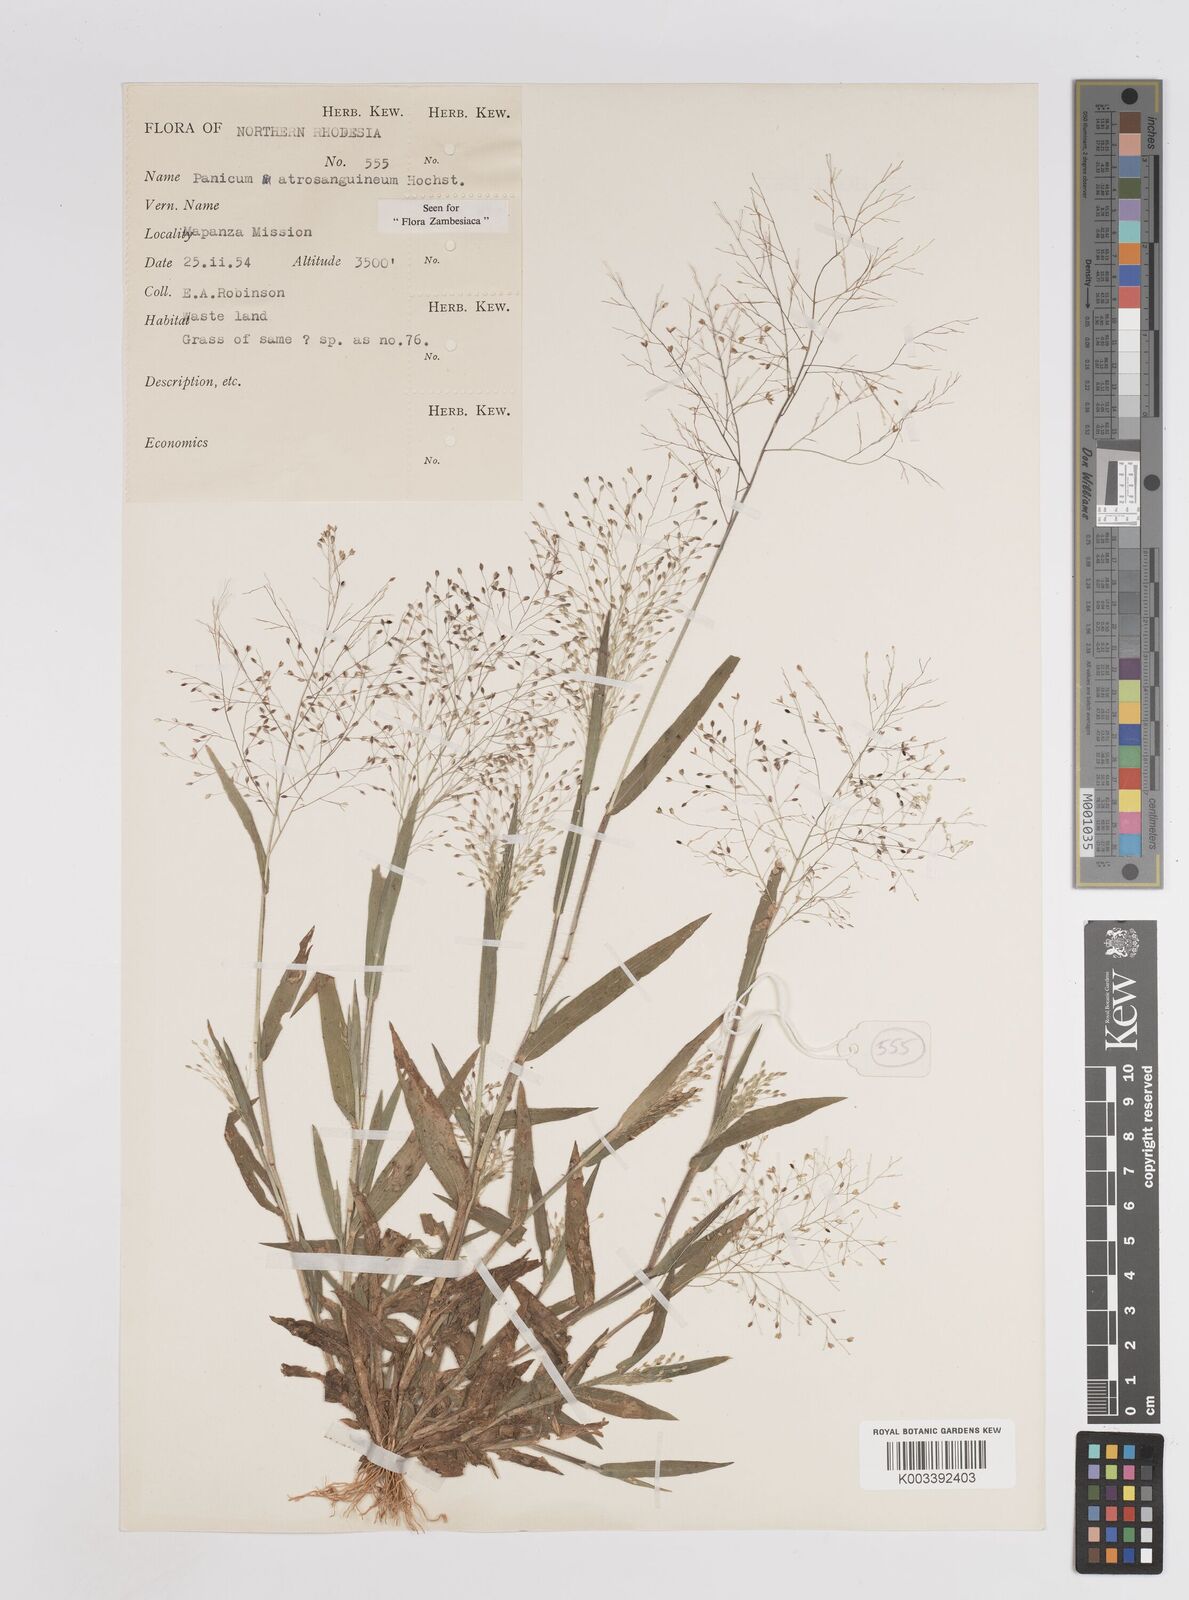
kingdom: Plantae
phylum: Tracheophyta
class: Liliopsida
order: Poales
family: Poaceae
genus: Panicum
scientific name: Panicum atrosanguineum
